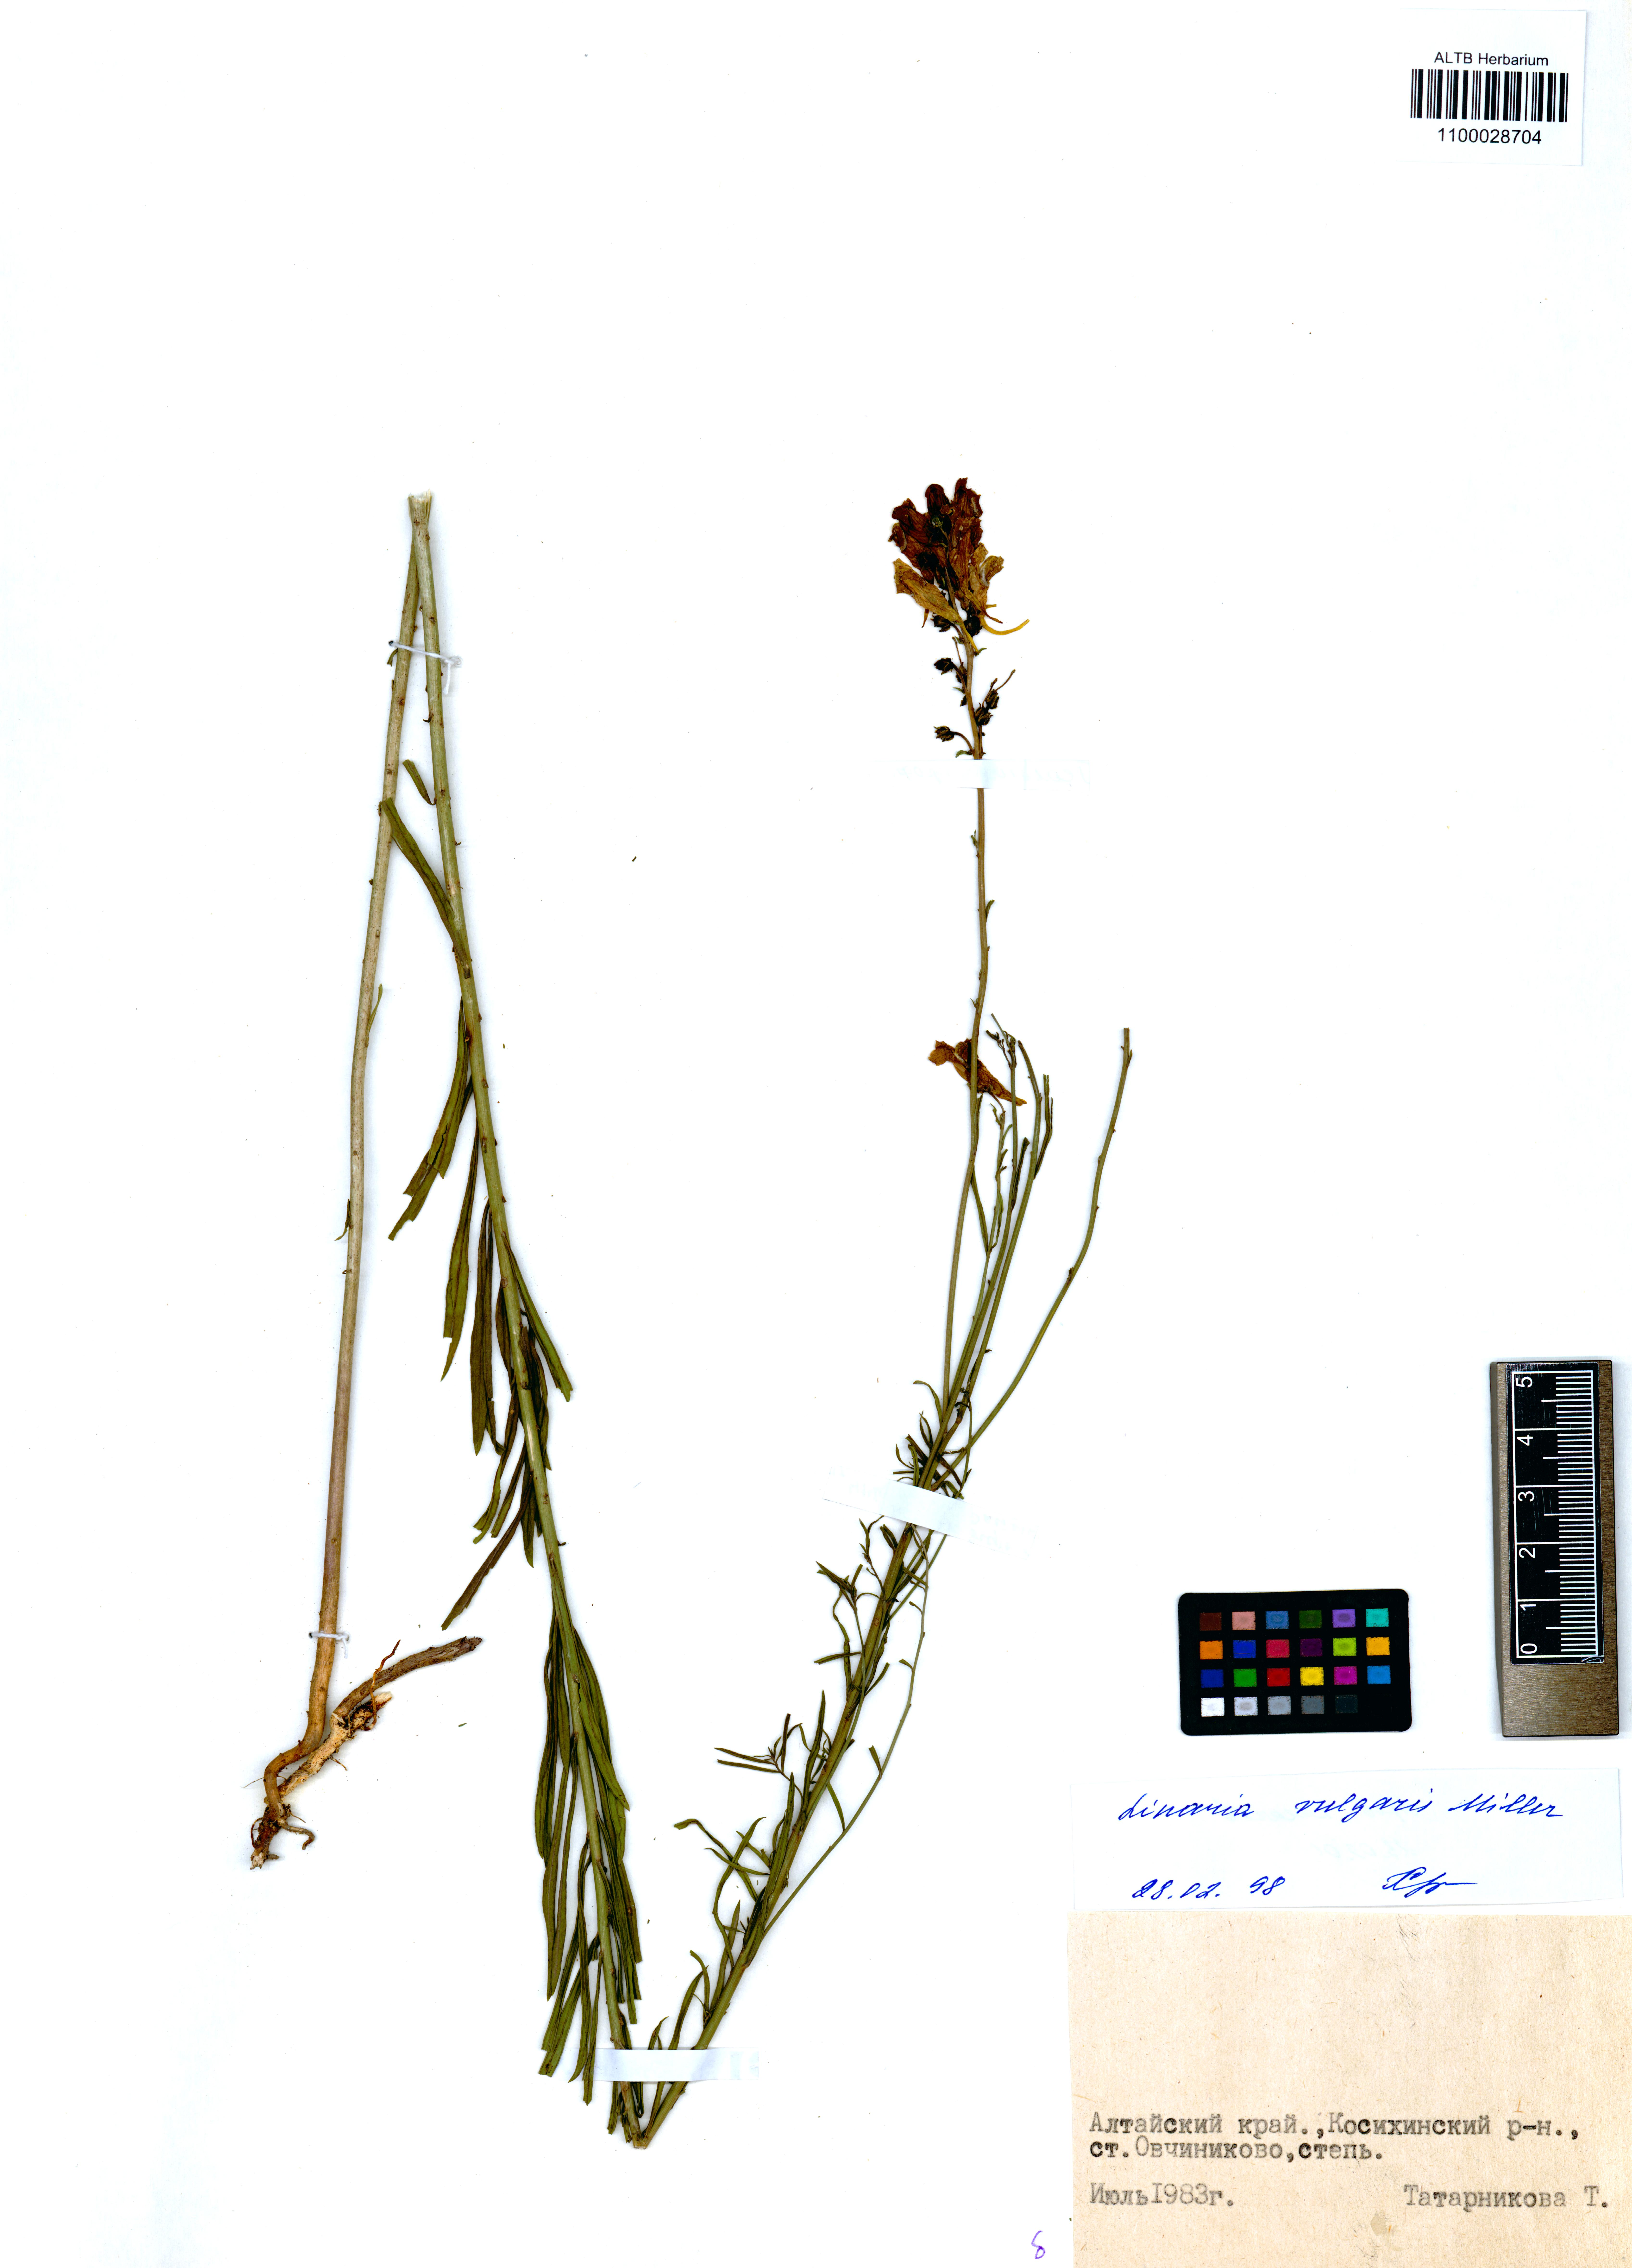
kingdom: Plantae
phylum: Tracheophyta
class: Magnoliopsida
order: Lamiales
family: Plantaginaceae
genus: Linaria
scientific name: Linaria vulgaris
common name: Butter and eggs
